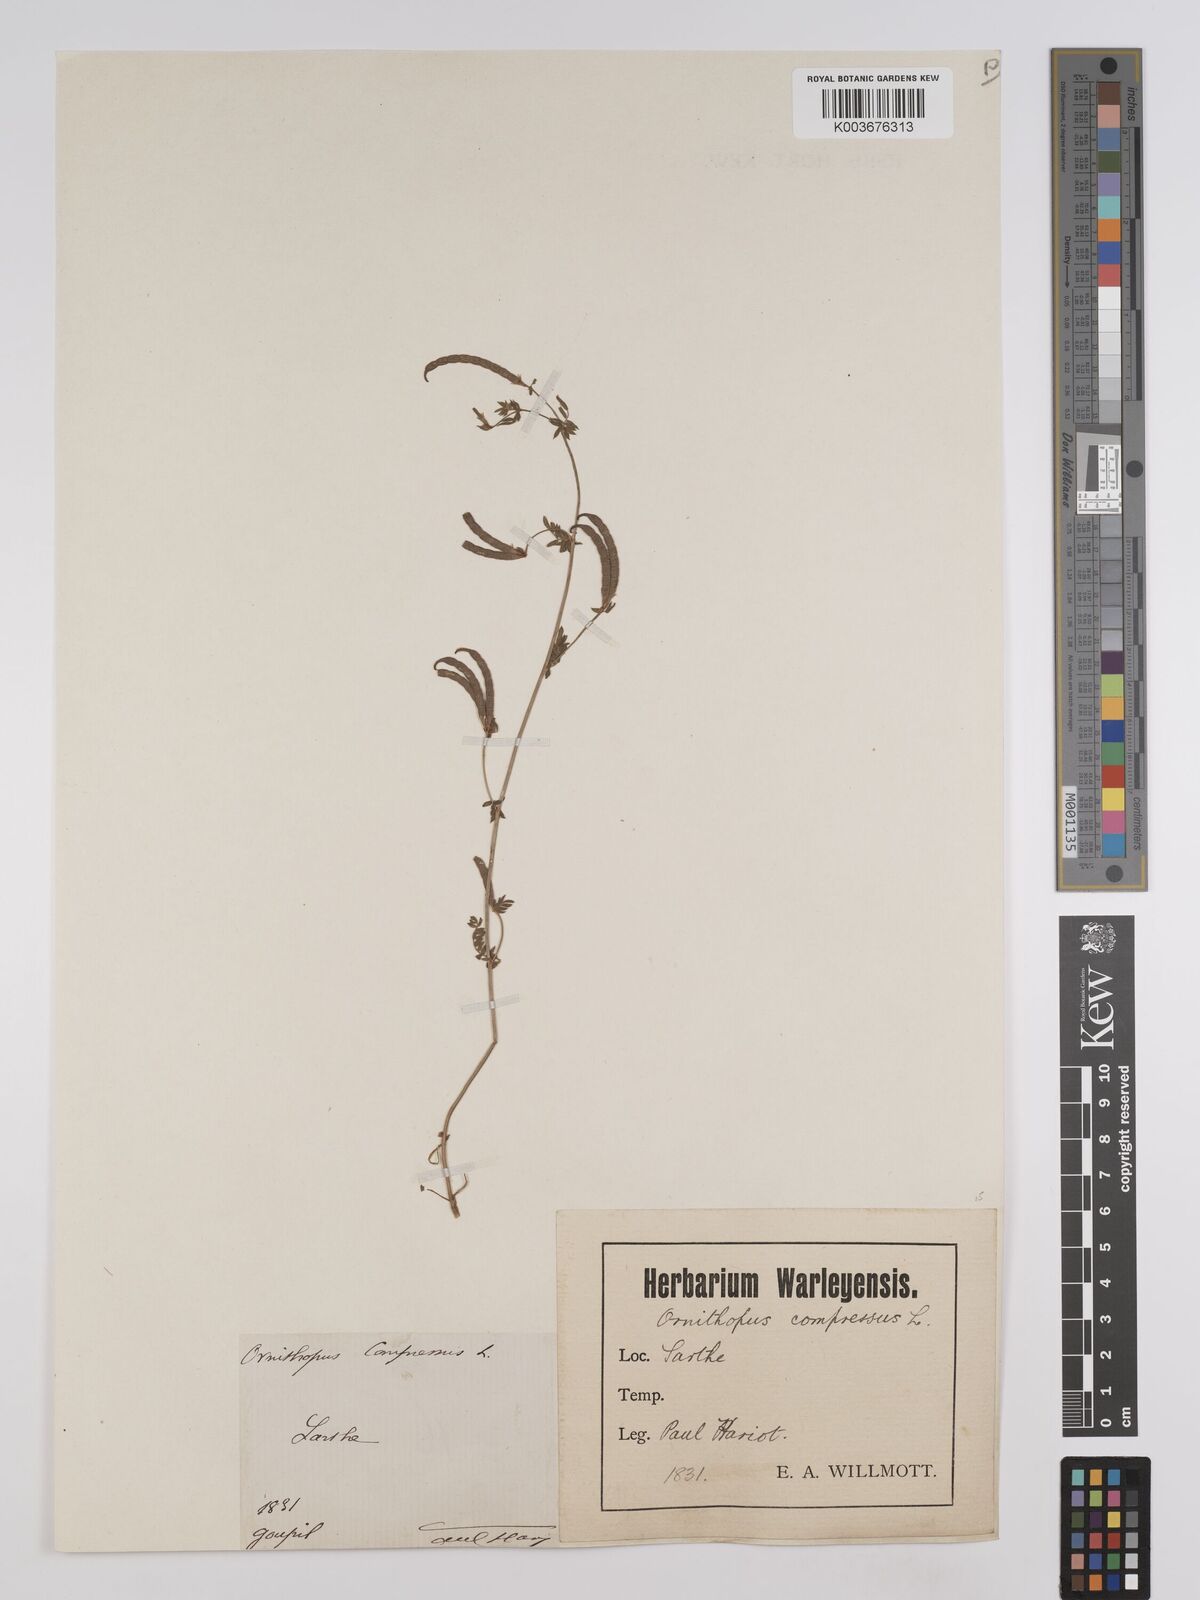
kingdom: Plantae
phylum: Tracheophyta
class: Magnoliopsida
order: Fabales
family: Fabaceae
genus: Ornithopus
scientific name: Ornithopus compressus
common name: Yellow serradella
